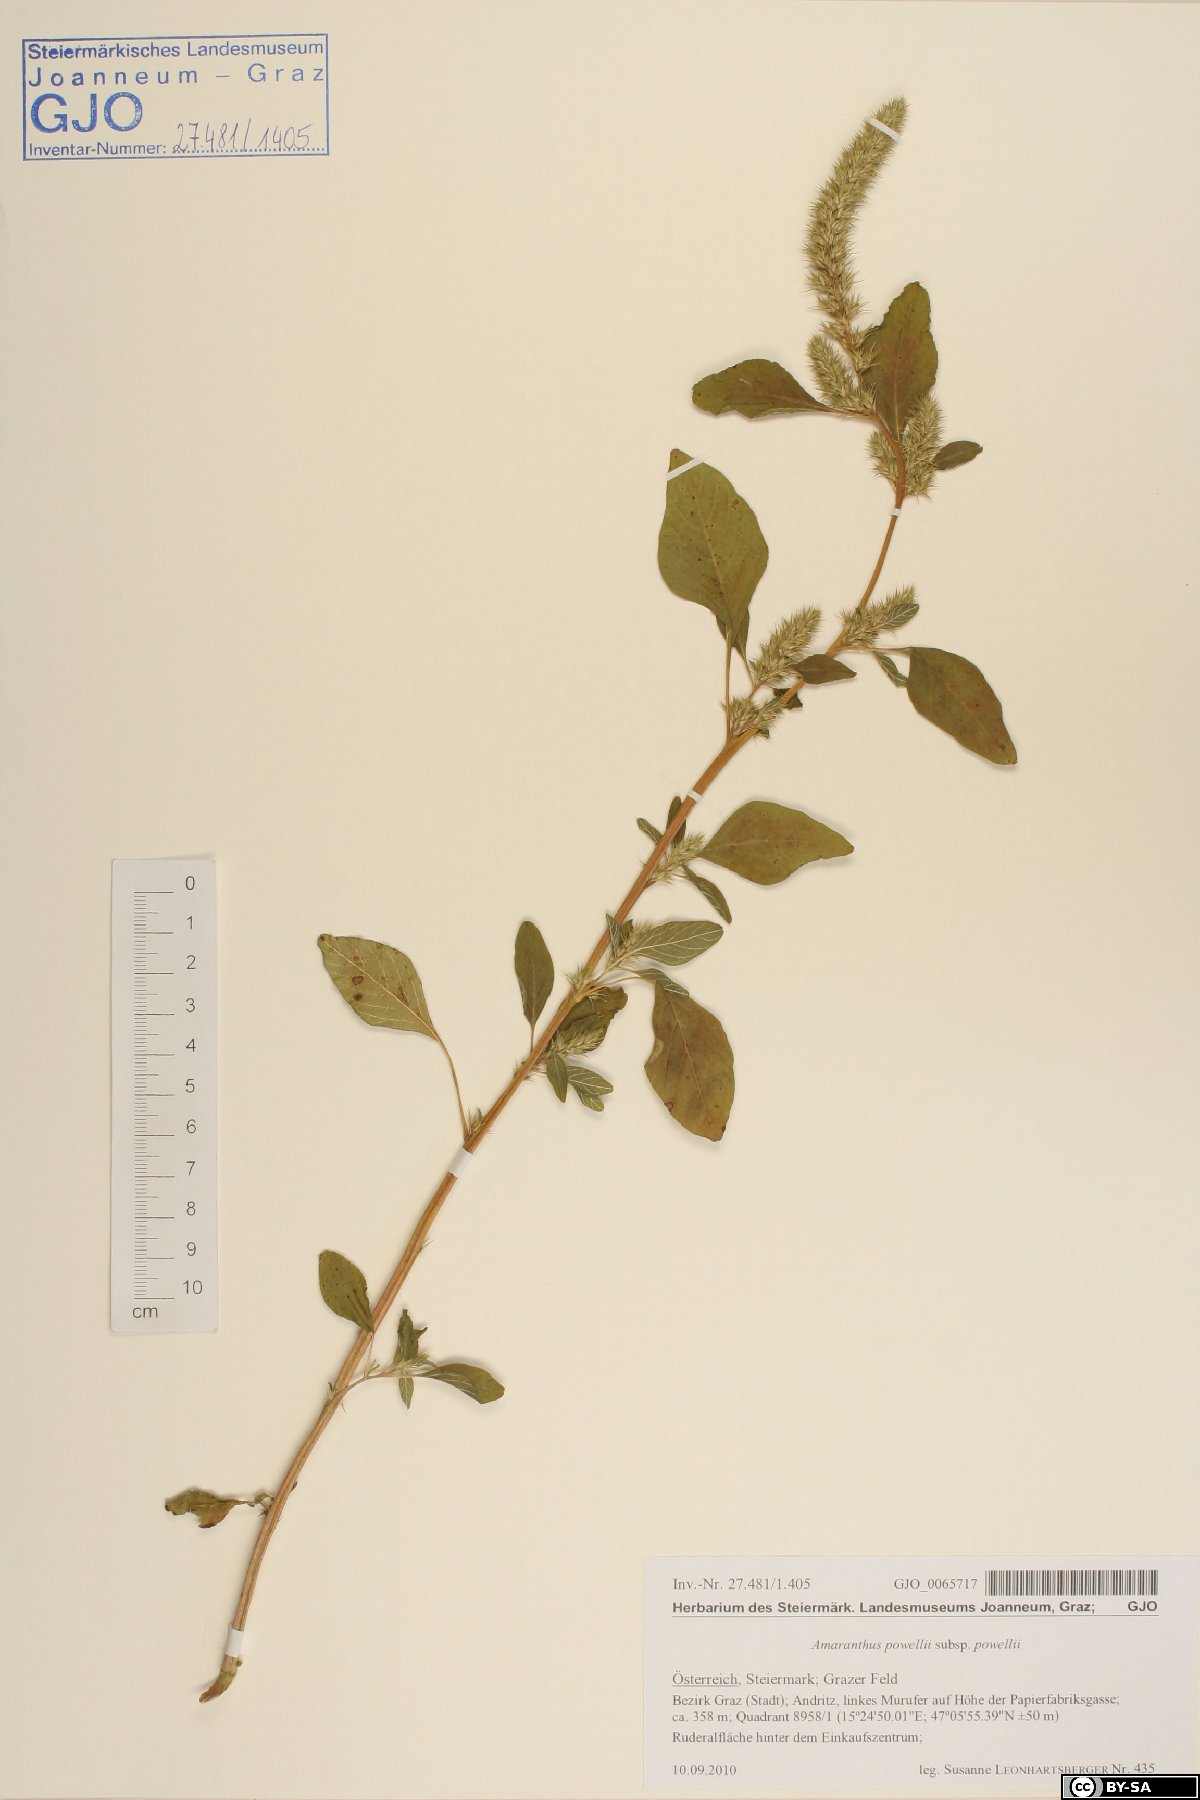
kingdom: Plantae
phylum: Tracheophyta
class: Magnoliopsida
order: Caryophyllales
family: Amaranthaceae
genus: Amaranthus
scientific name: Amaranthus powellii
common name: Powell's amaranth
